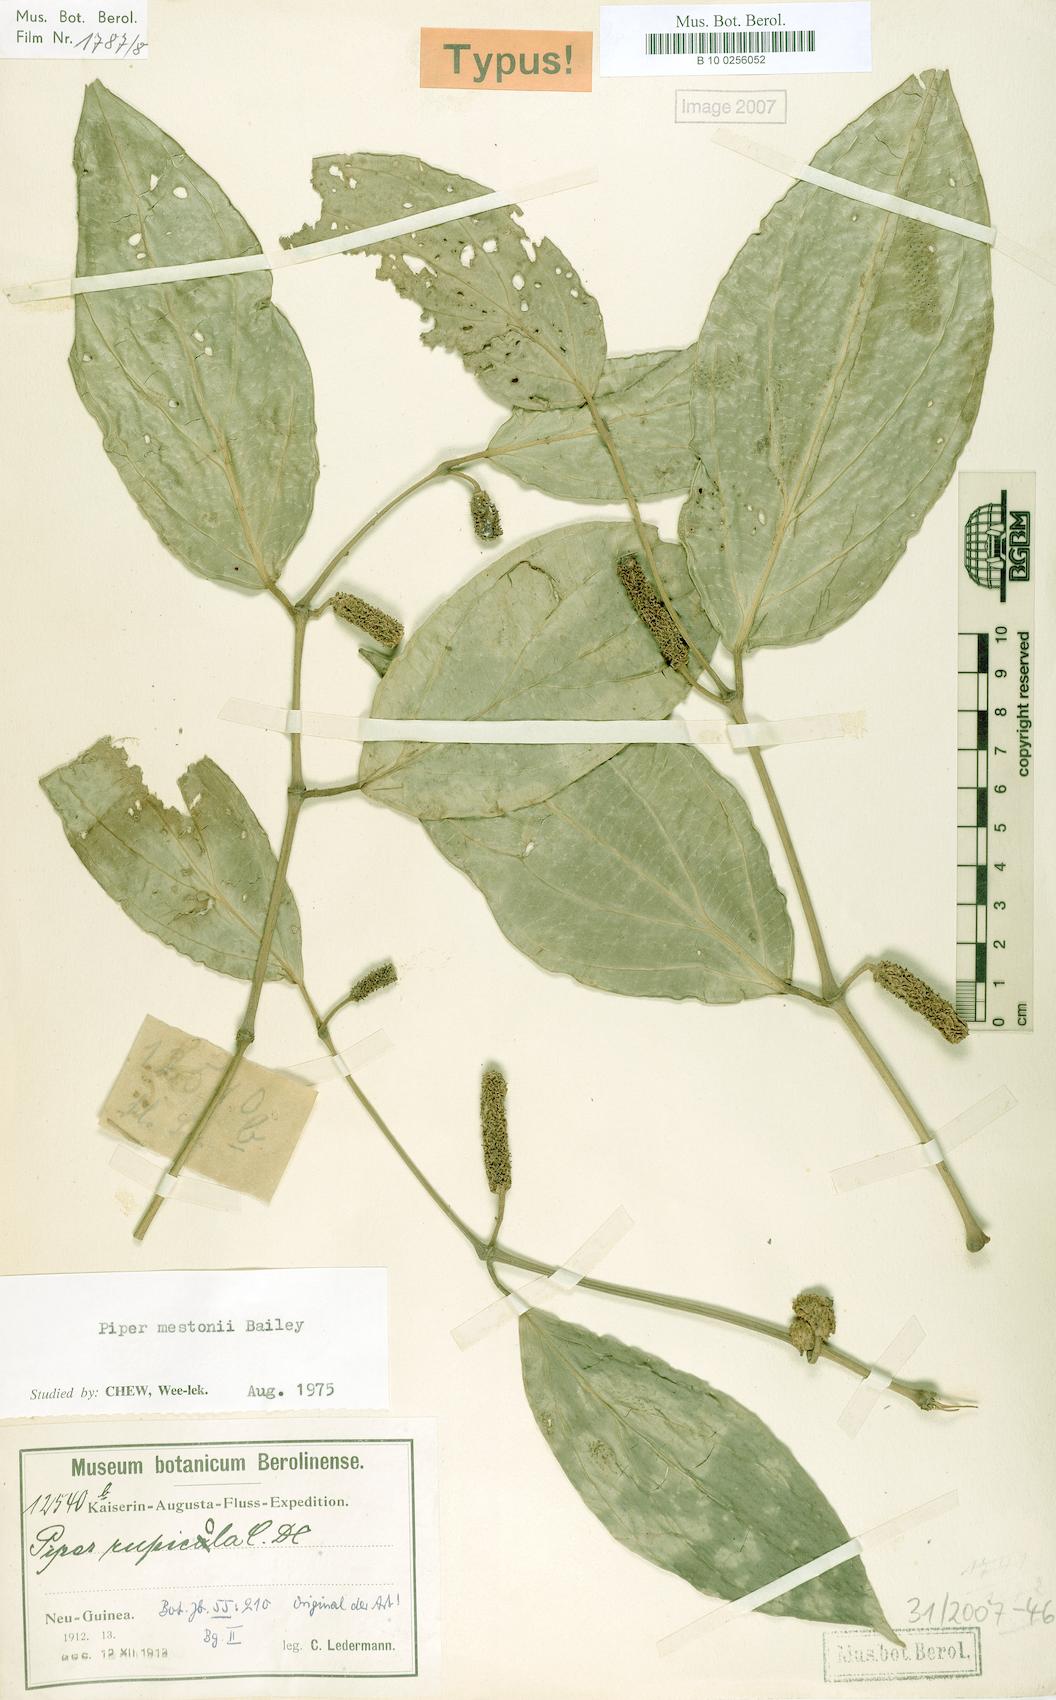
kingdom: Plantae
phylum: Tracheophyta
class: Magnoliopsida
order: Piperales
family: Piperaceae
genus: Piper
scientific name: Piper mestonii
